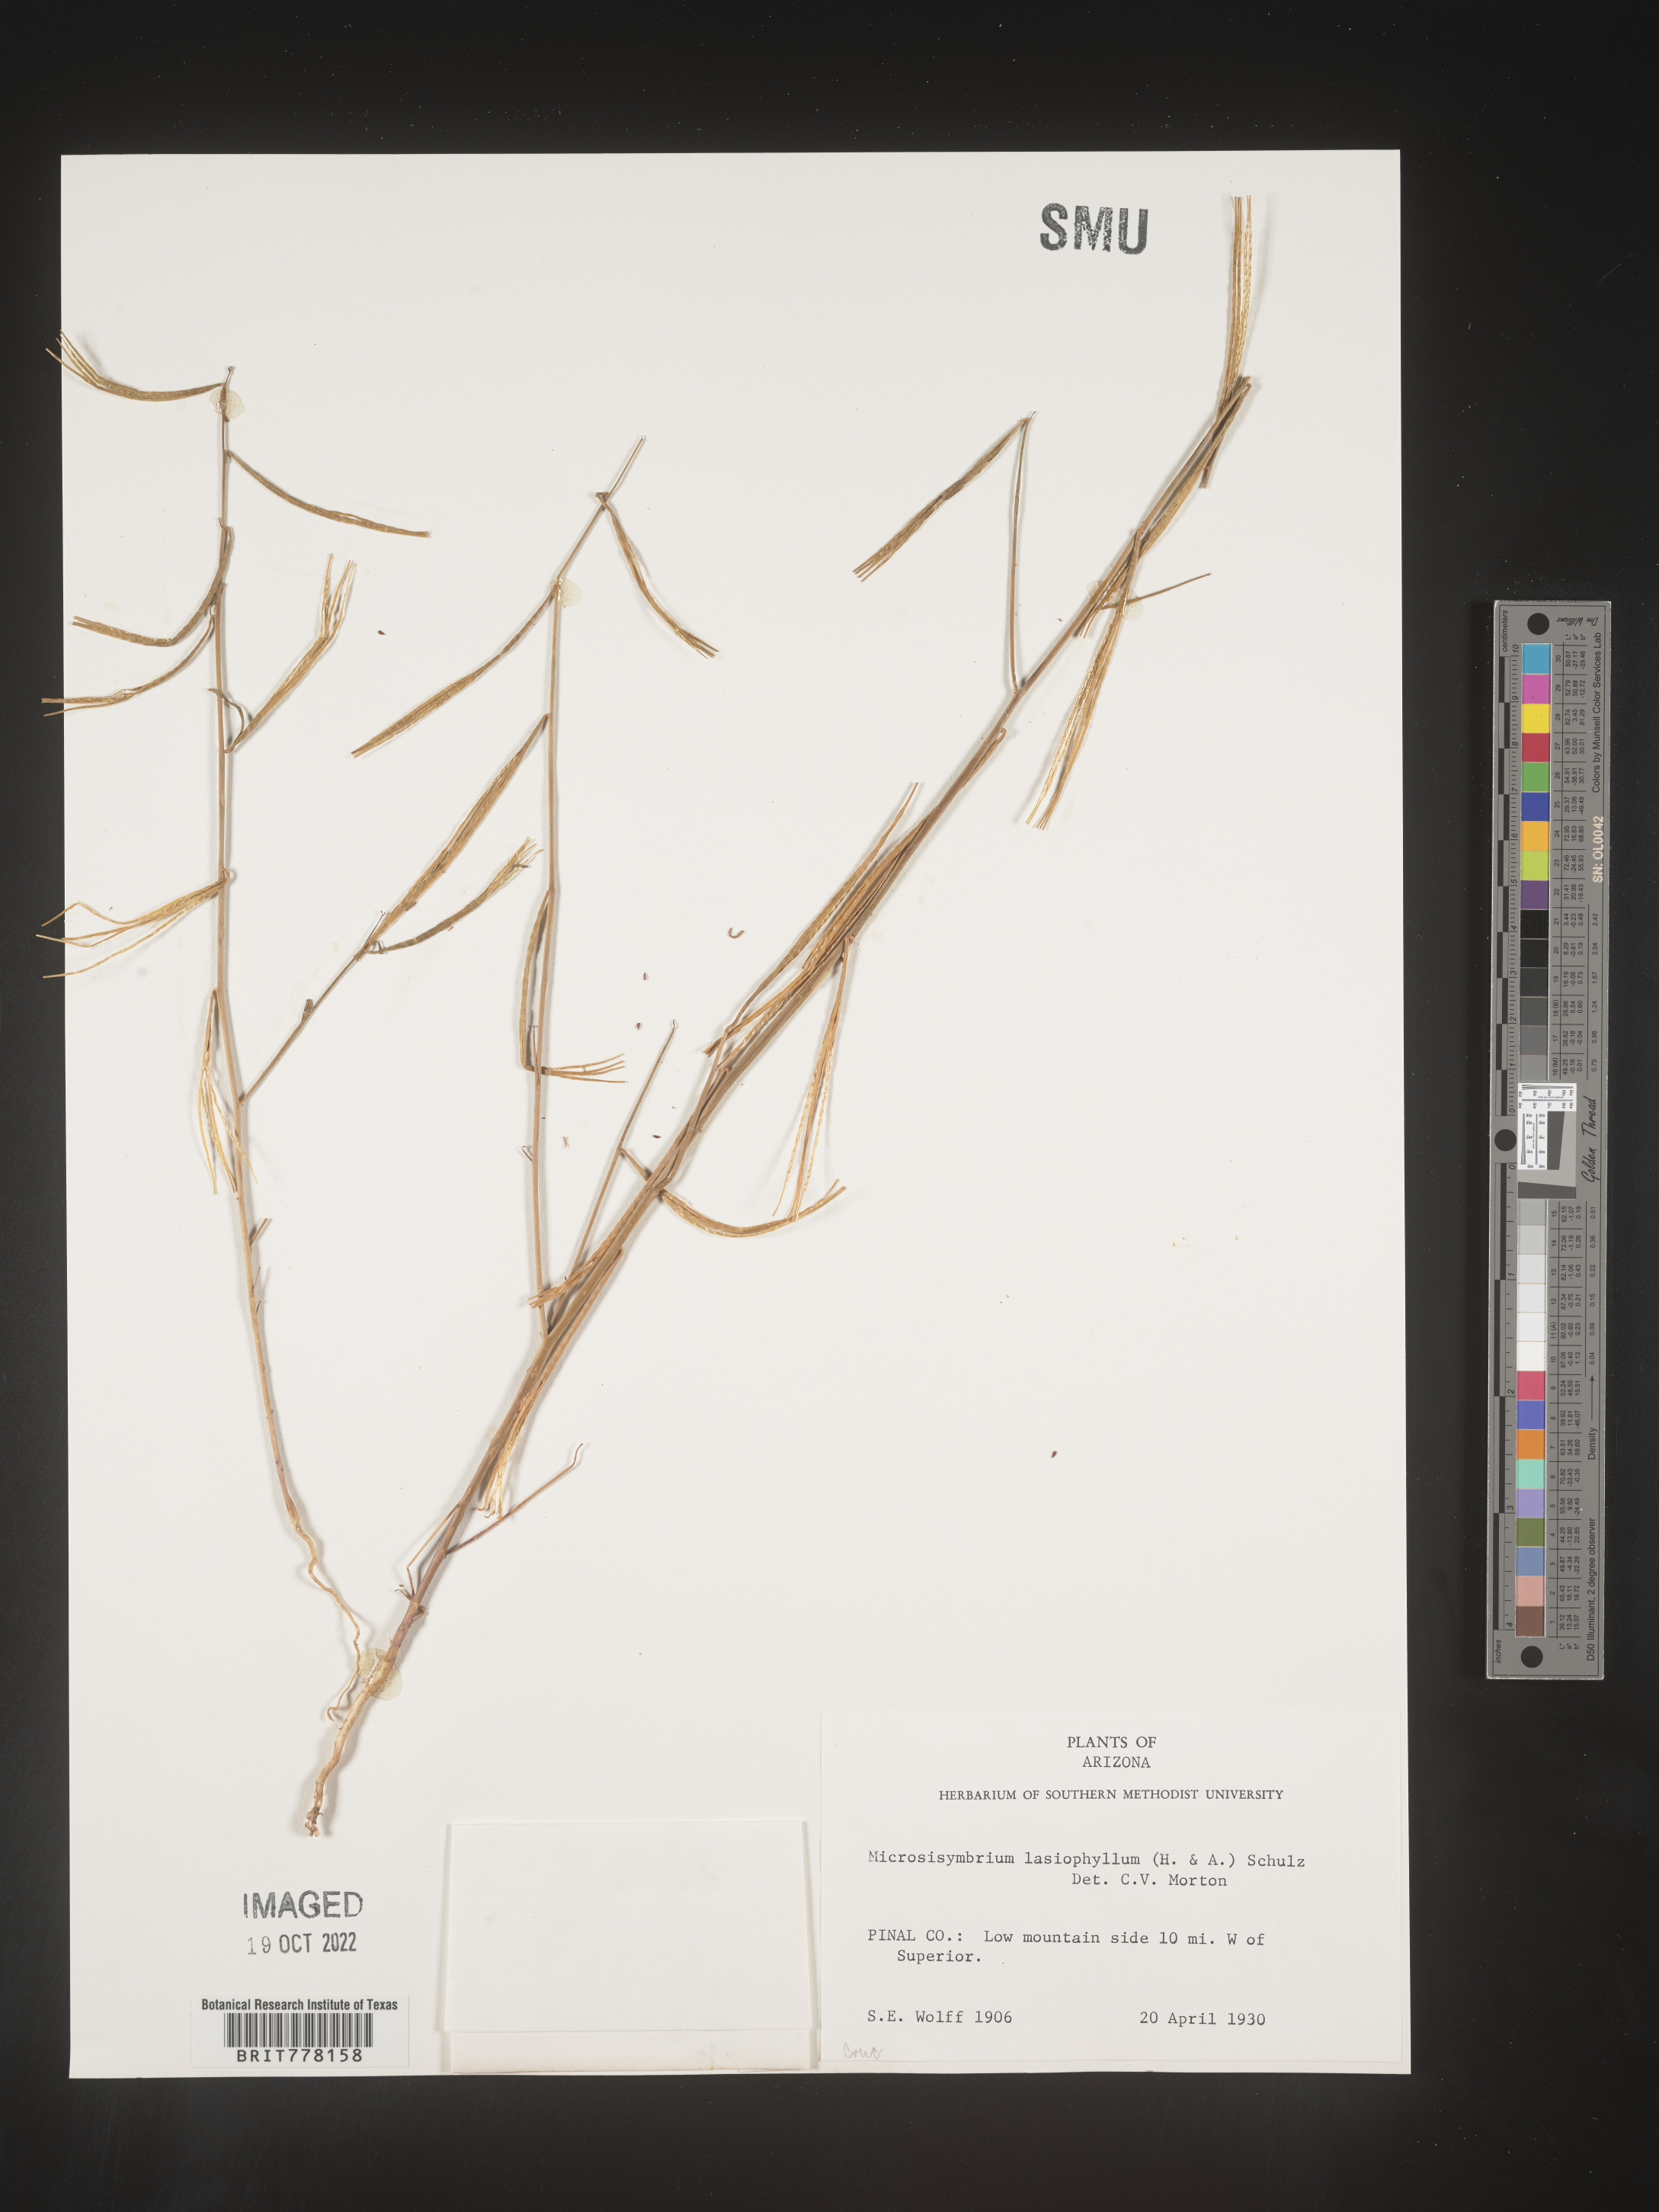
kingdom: Plantae
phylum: Tracheophyta
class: Magnoliopsida
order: Brassicales
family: Brassicaceae
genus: Streptanthus
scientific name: Streptanthus lasiophyllus
